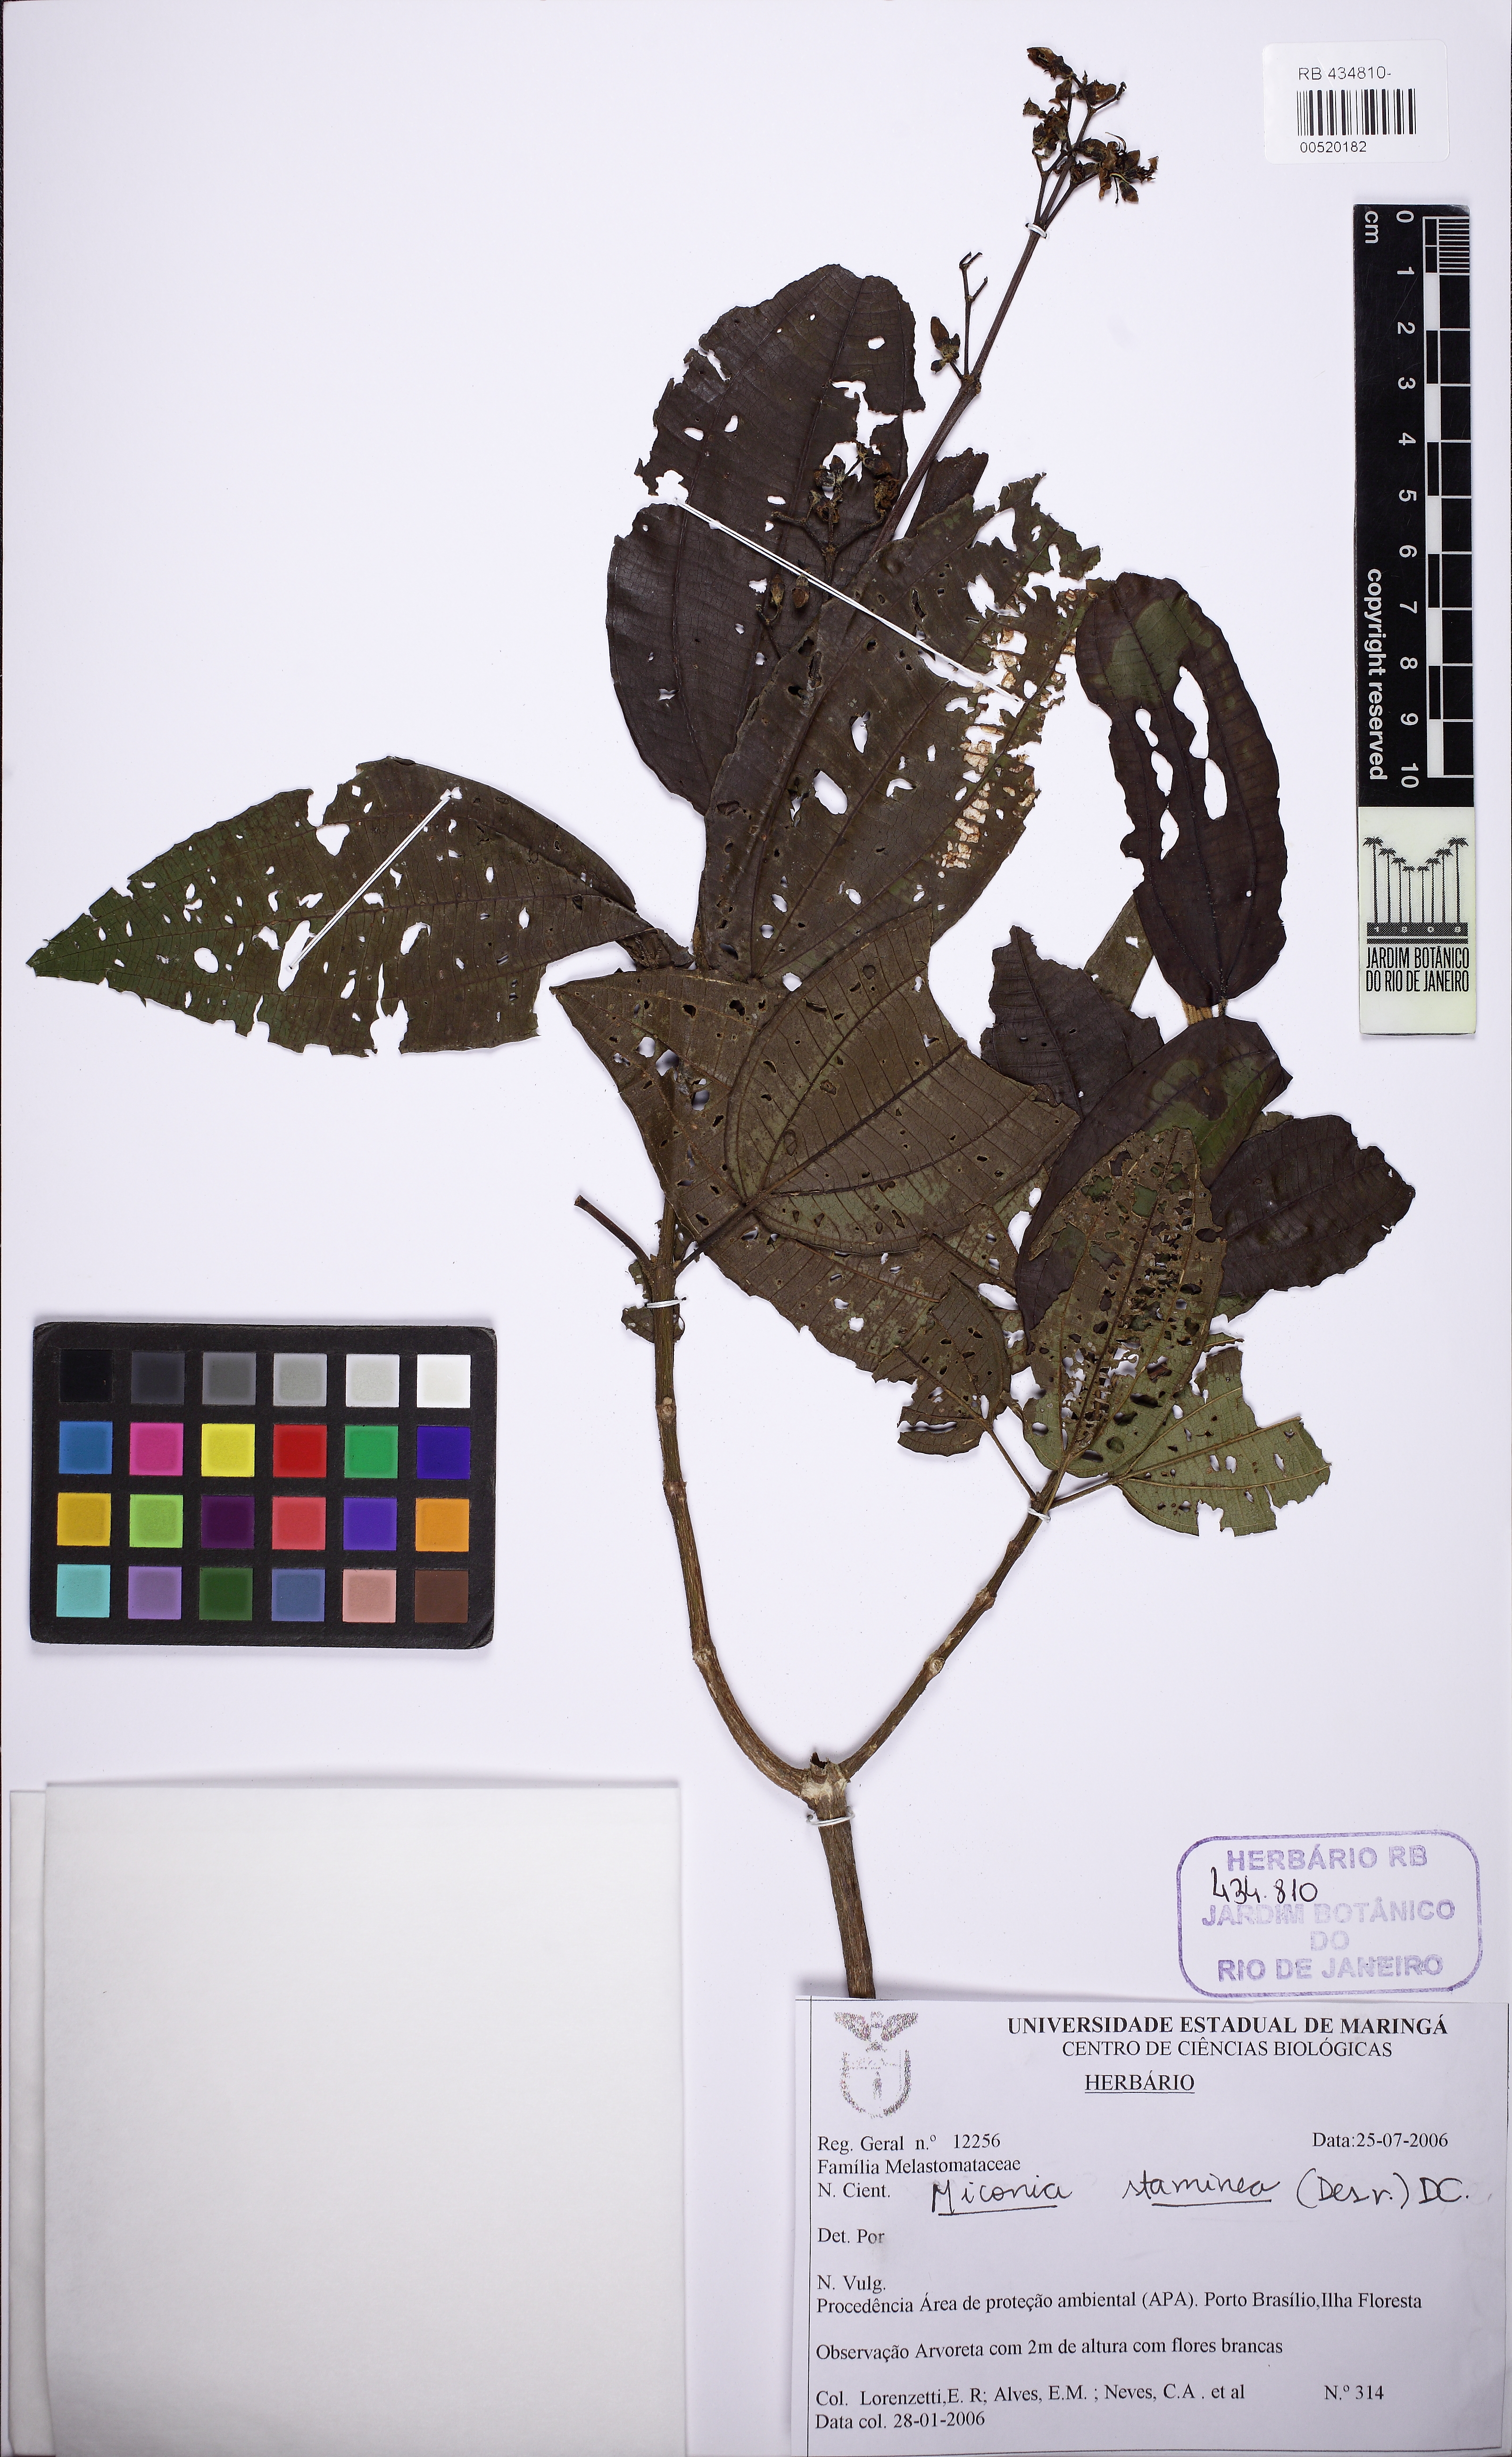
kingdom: Plantae
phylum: Tracheophyta
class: Magnoliopsida
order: Myrtales
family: Melastomataceae
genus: Miconia
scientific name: Miconia staminea
